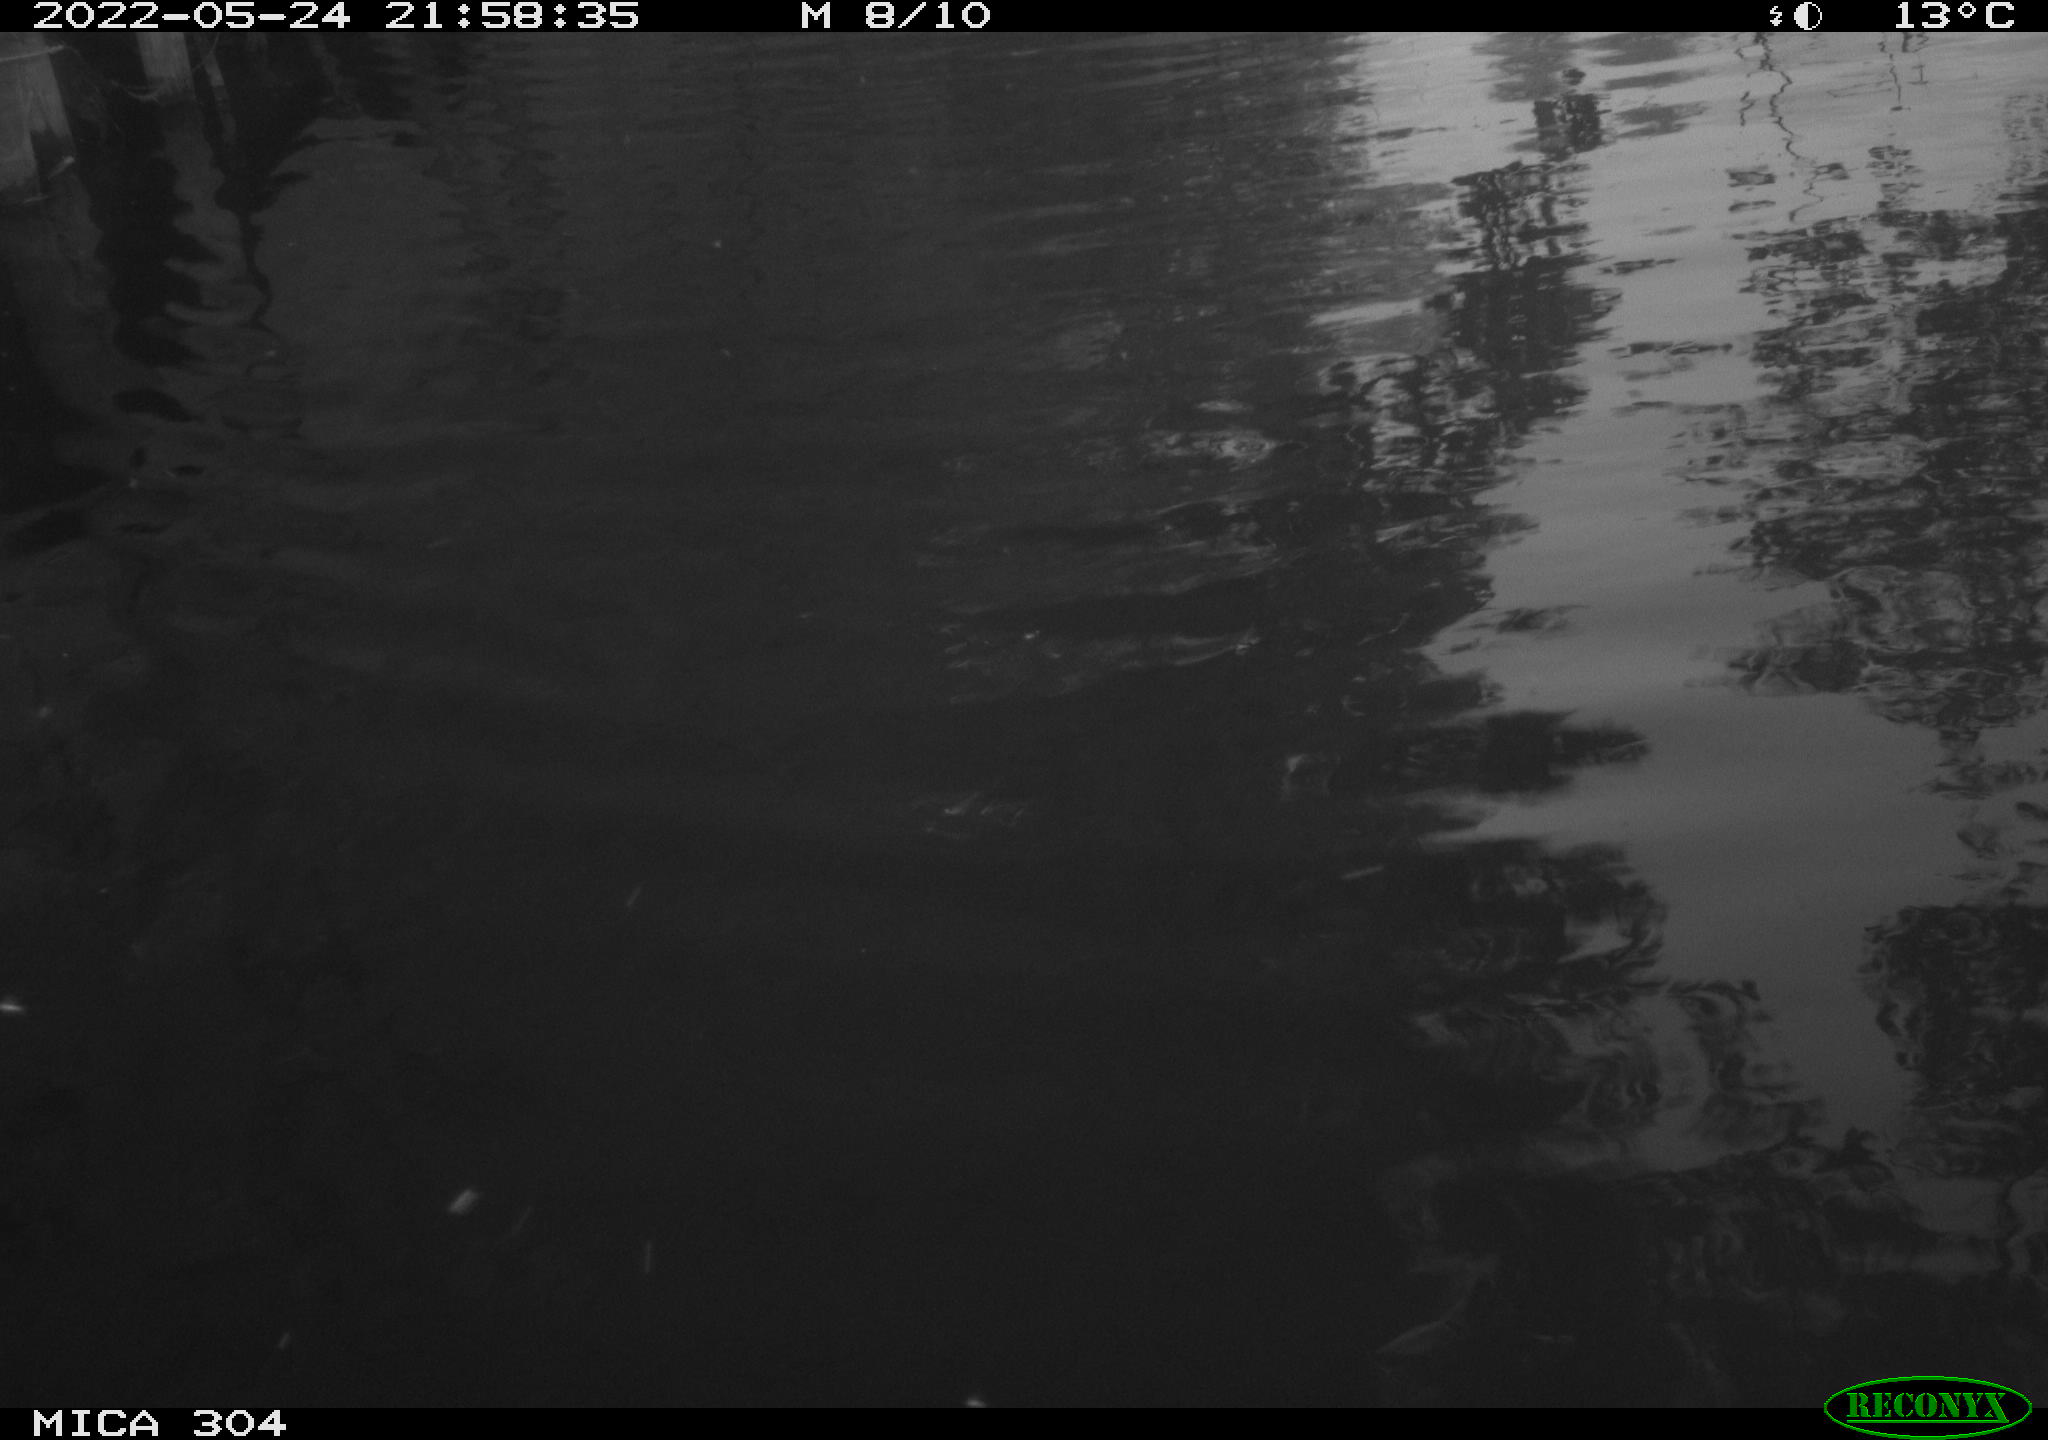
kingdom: Animalia
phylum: Chordata
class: Aves
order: Anseriformes
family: Anatidae
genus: Anas
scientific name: Anas platyrhynchos
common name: Mallard
